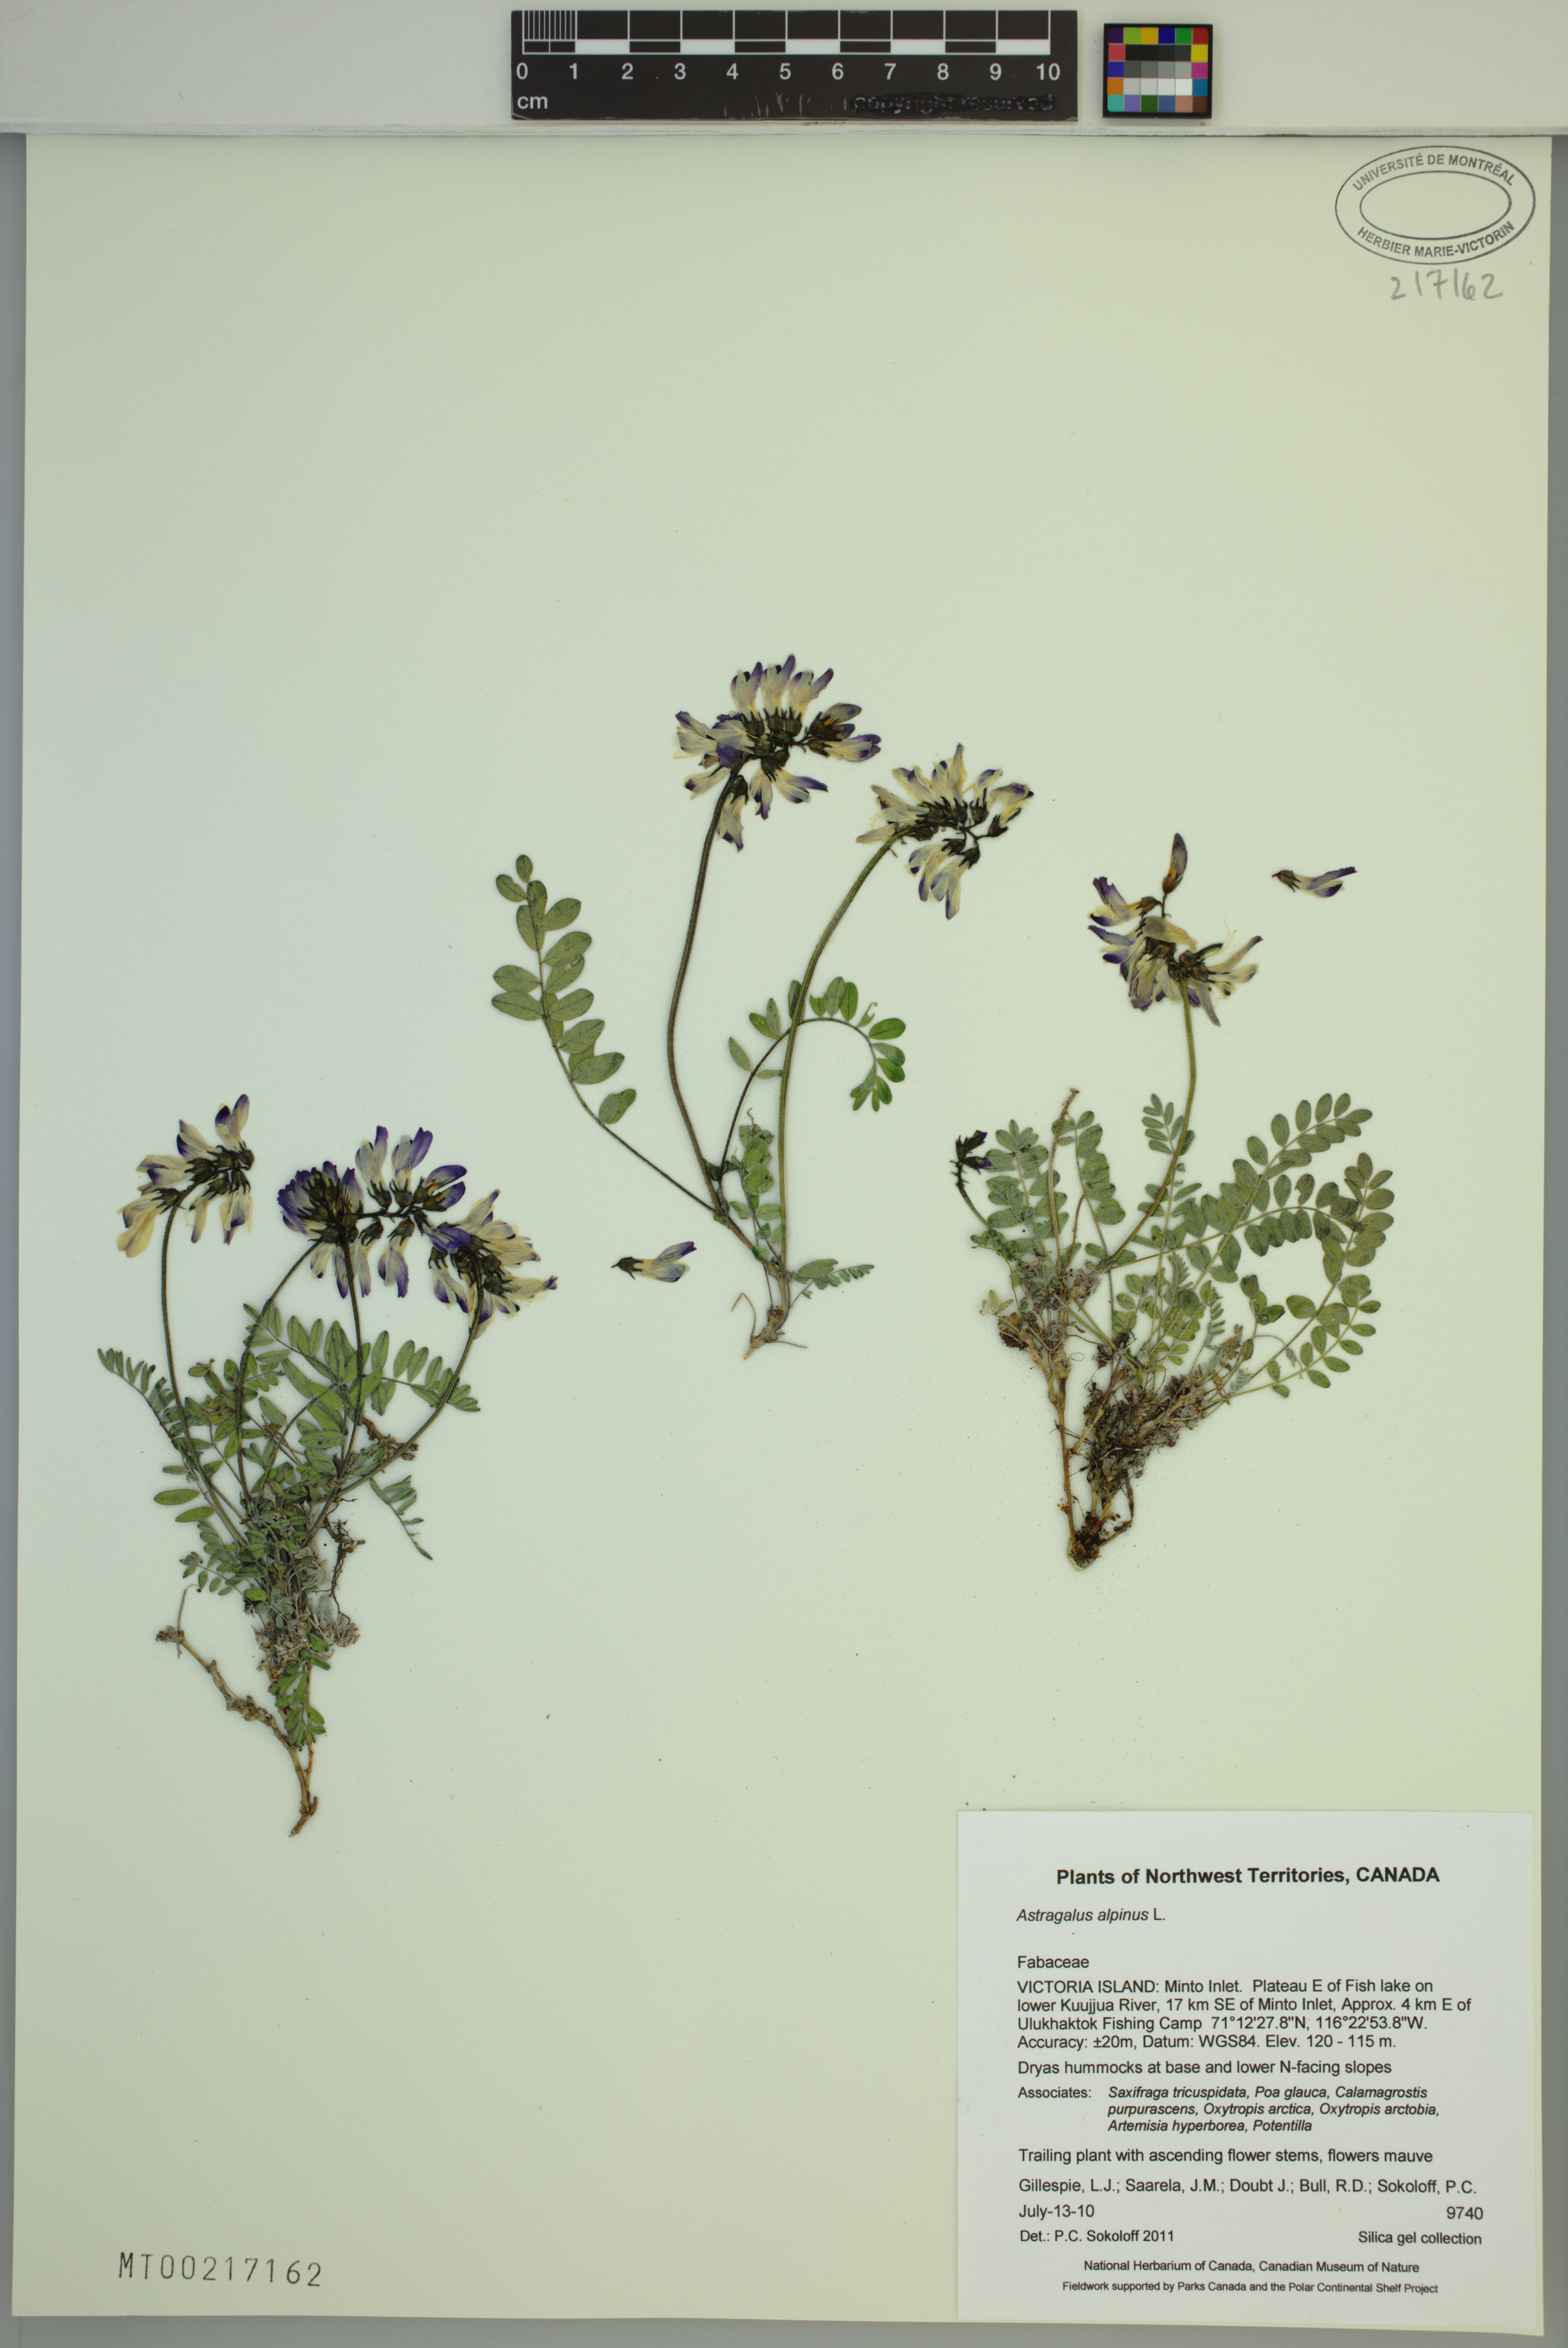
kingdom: Plantae
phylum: Tracheophyta
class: Magnoliopsida
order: Fabales
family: Fabaceae
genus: Astragalus
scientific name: Astragalus alpinus
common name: Alpine milk-vetch
